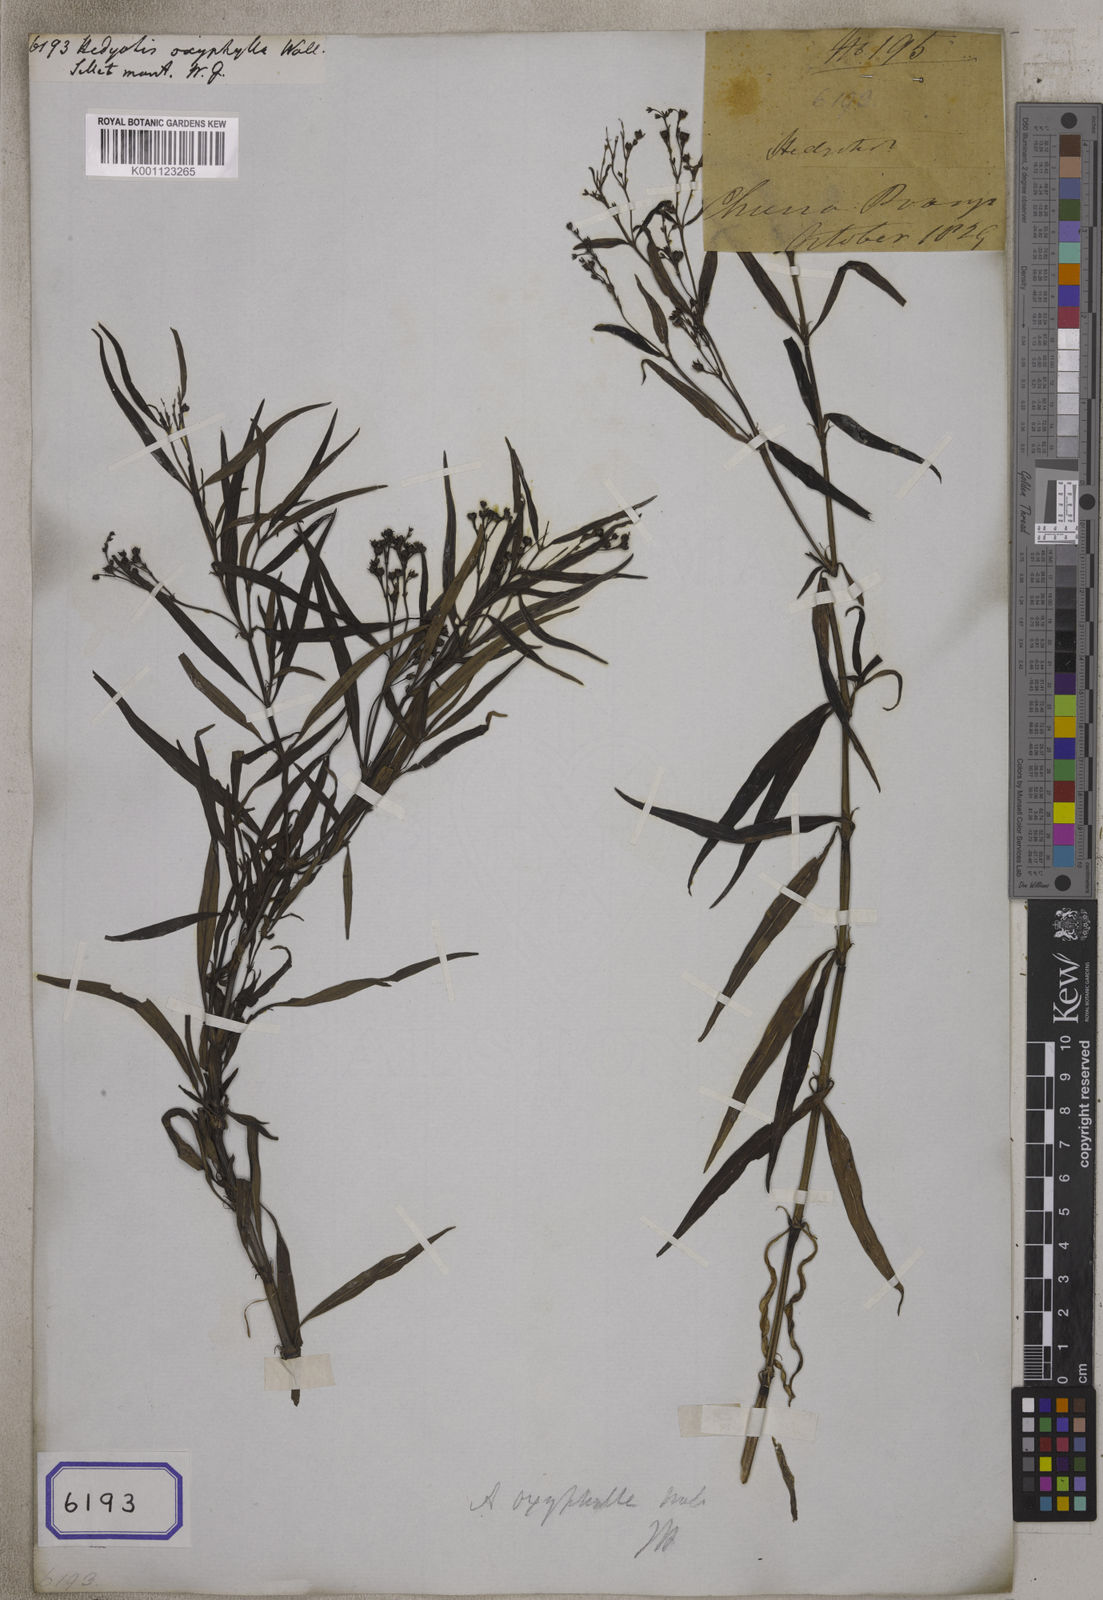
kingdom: Plantae
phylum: Tracheophyta
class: Magnoliopsida
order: Gentianales
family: Rubiaceae
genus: Hedyotis
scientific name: Hedyotis
